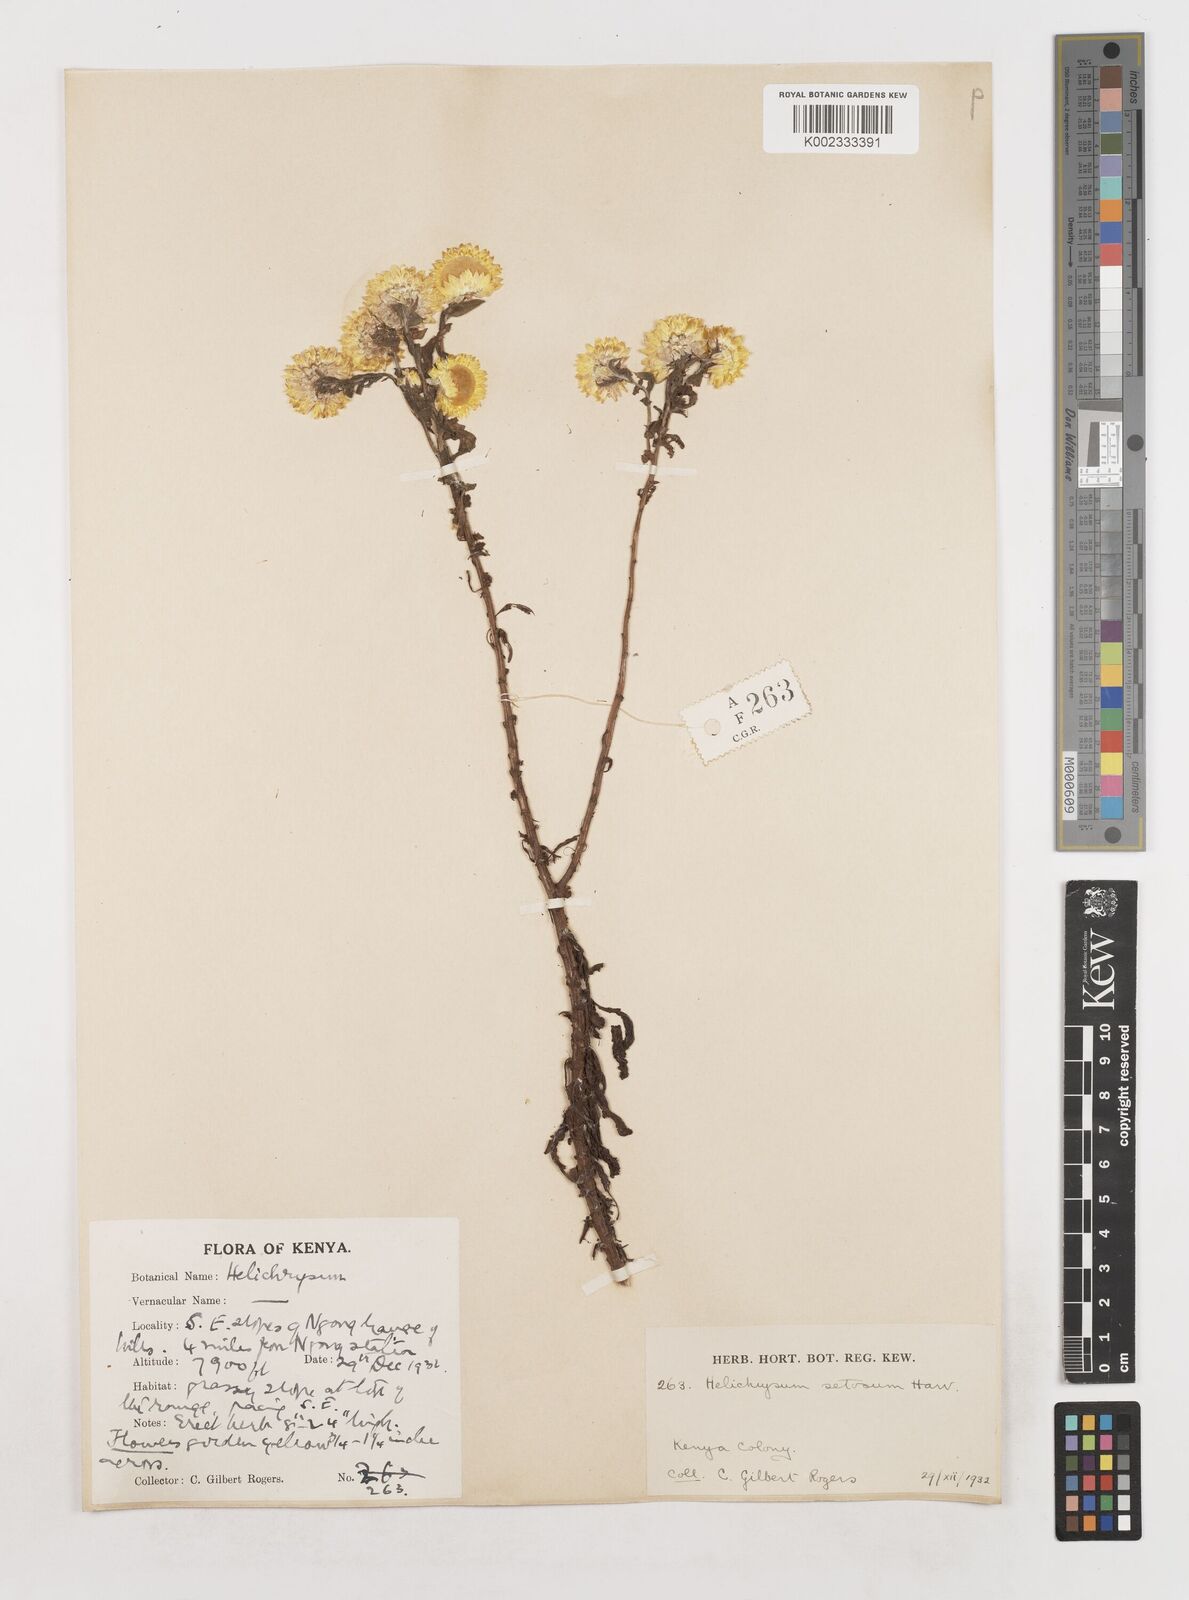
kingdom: Plantae
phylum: Tracheophyta
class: Magnoliopsida
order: Asterales
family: Asteraceae
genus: Helichrysum
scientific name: Helichrysum setosum
